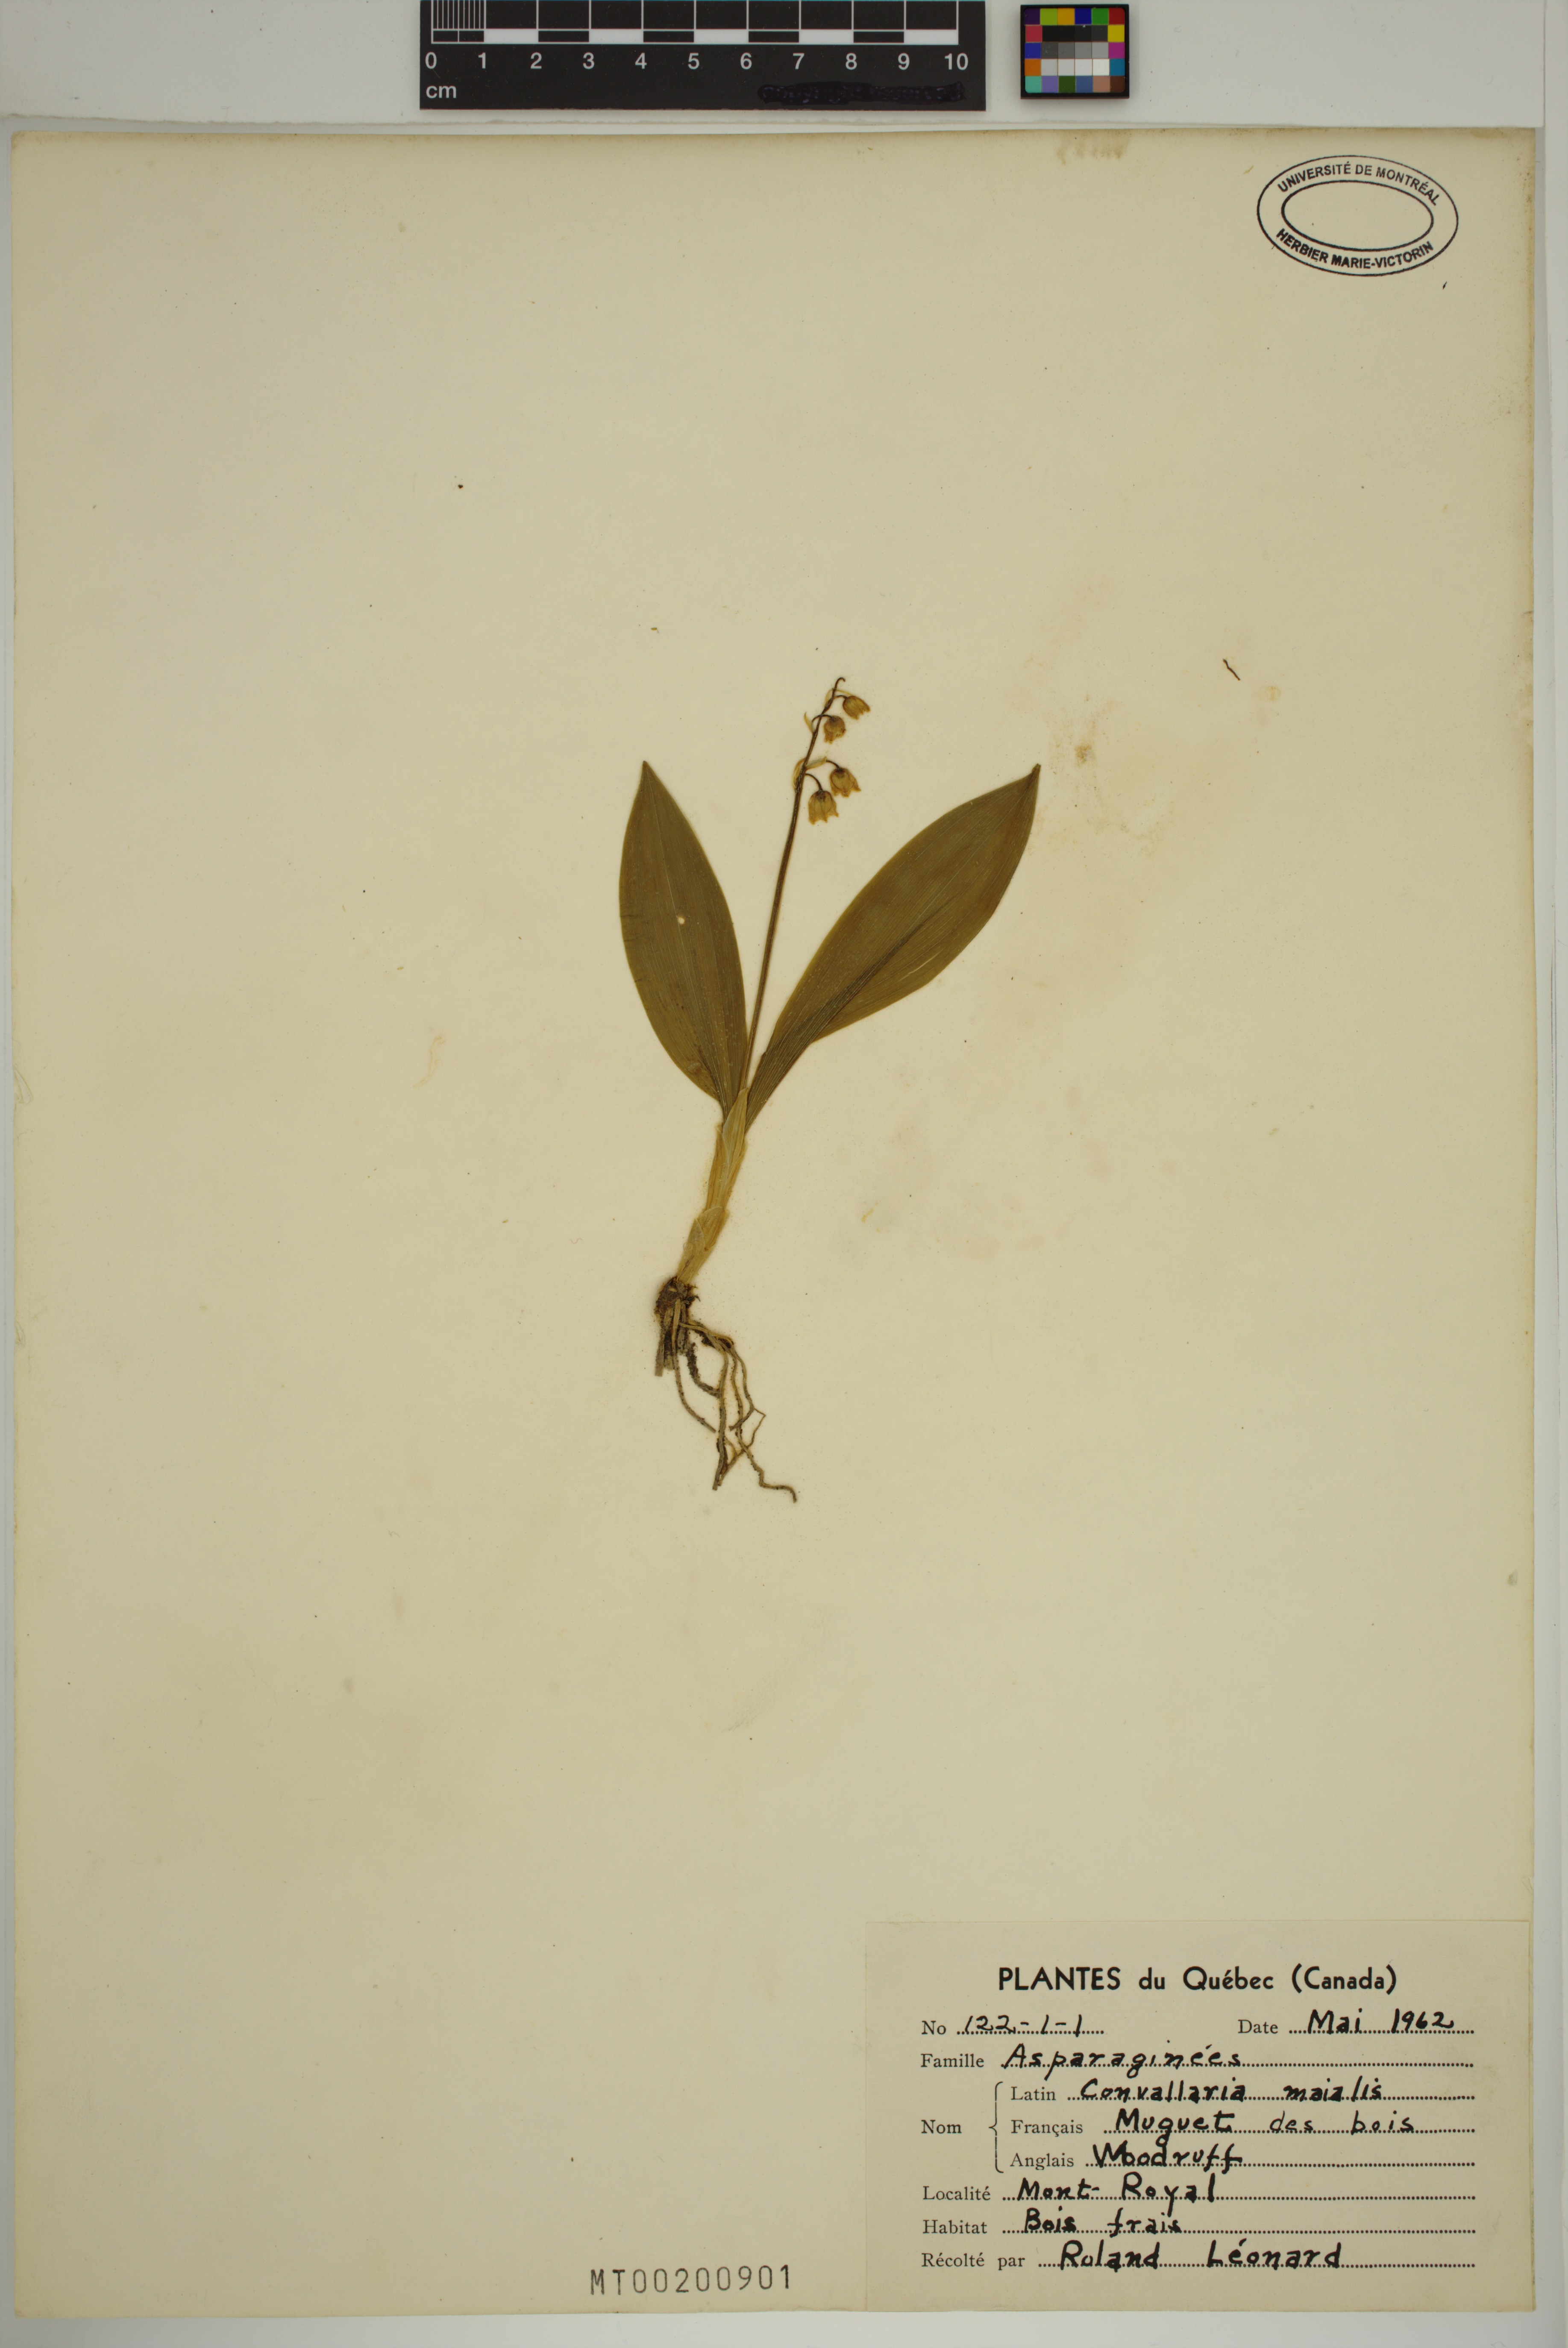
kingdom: Plantae
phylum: Tracheophyta
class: Liliopsida
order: Asparagales
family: Asparagaceae
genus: Convallaria
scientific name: Convallaria majalis
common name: Lily-of-the-valley
